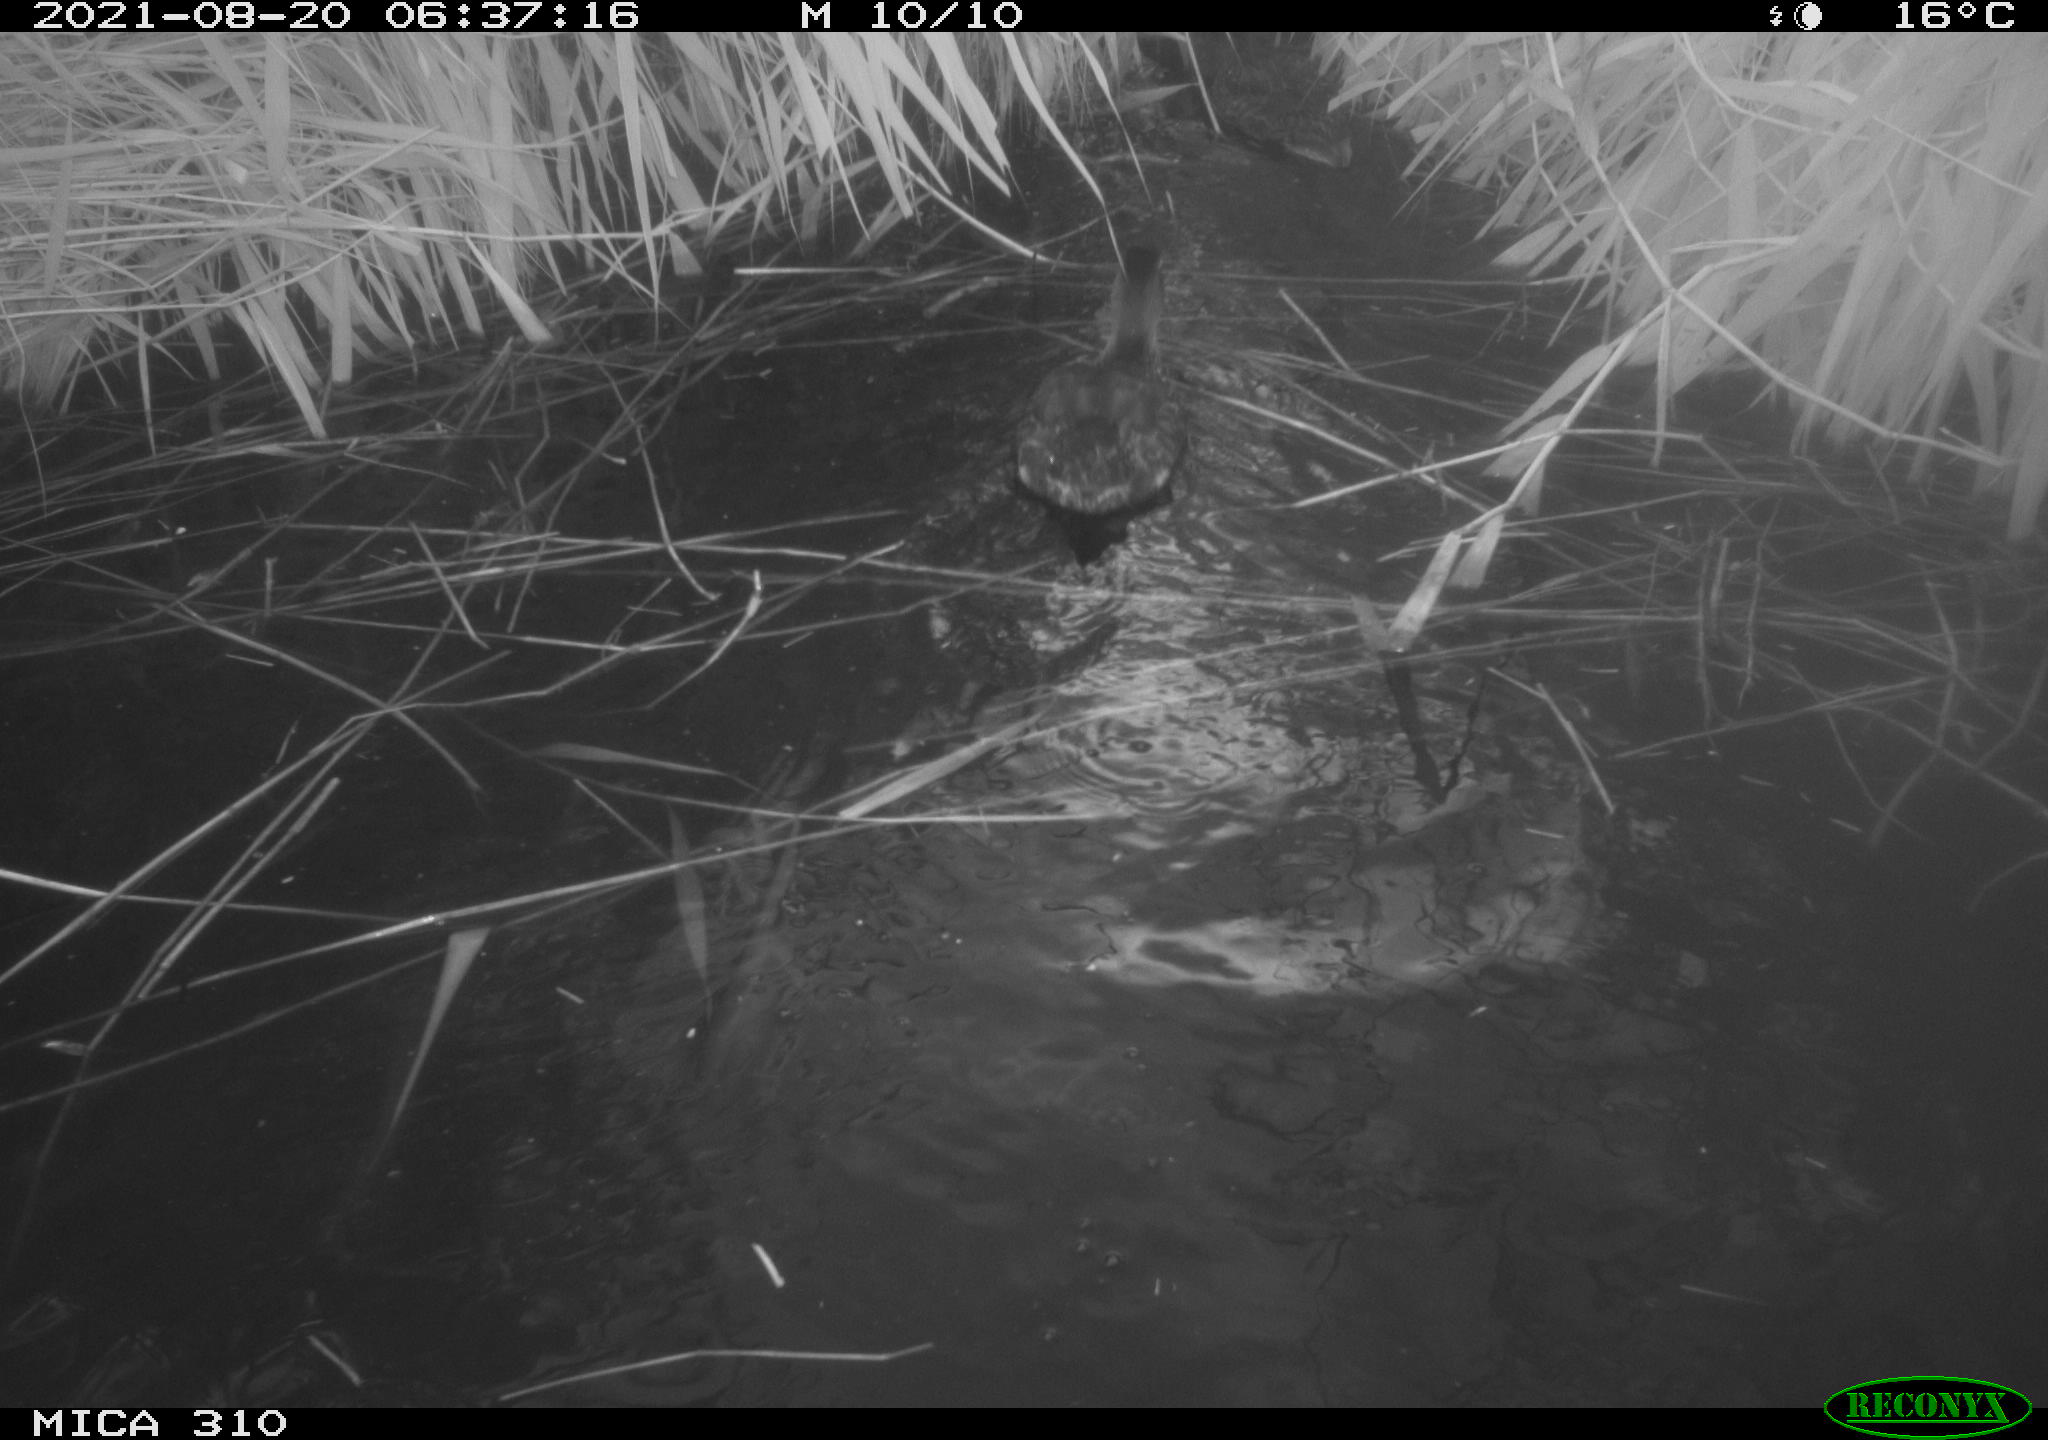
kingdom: Animalia
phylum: Chordata
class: Aves
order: Anseriformes
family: Anatidae
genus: Anas
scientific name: Anas platyrhynchos
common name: Mallard
